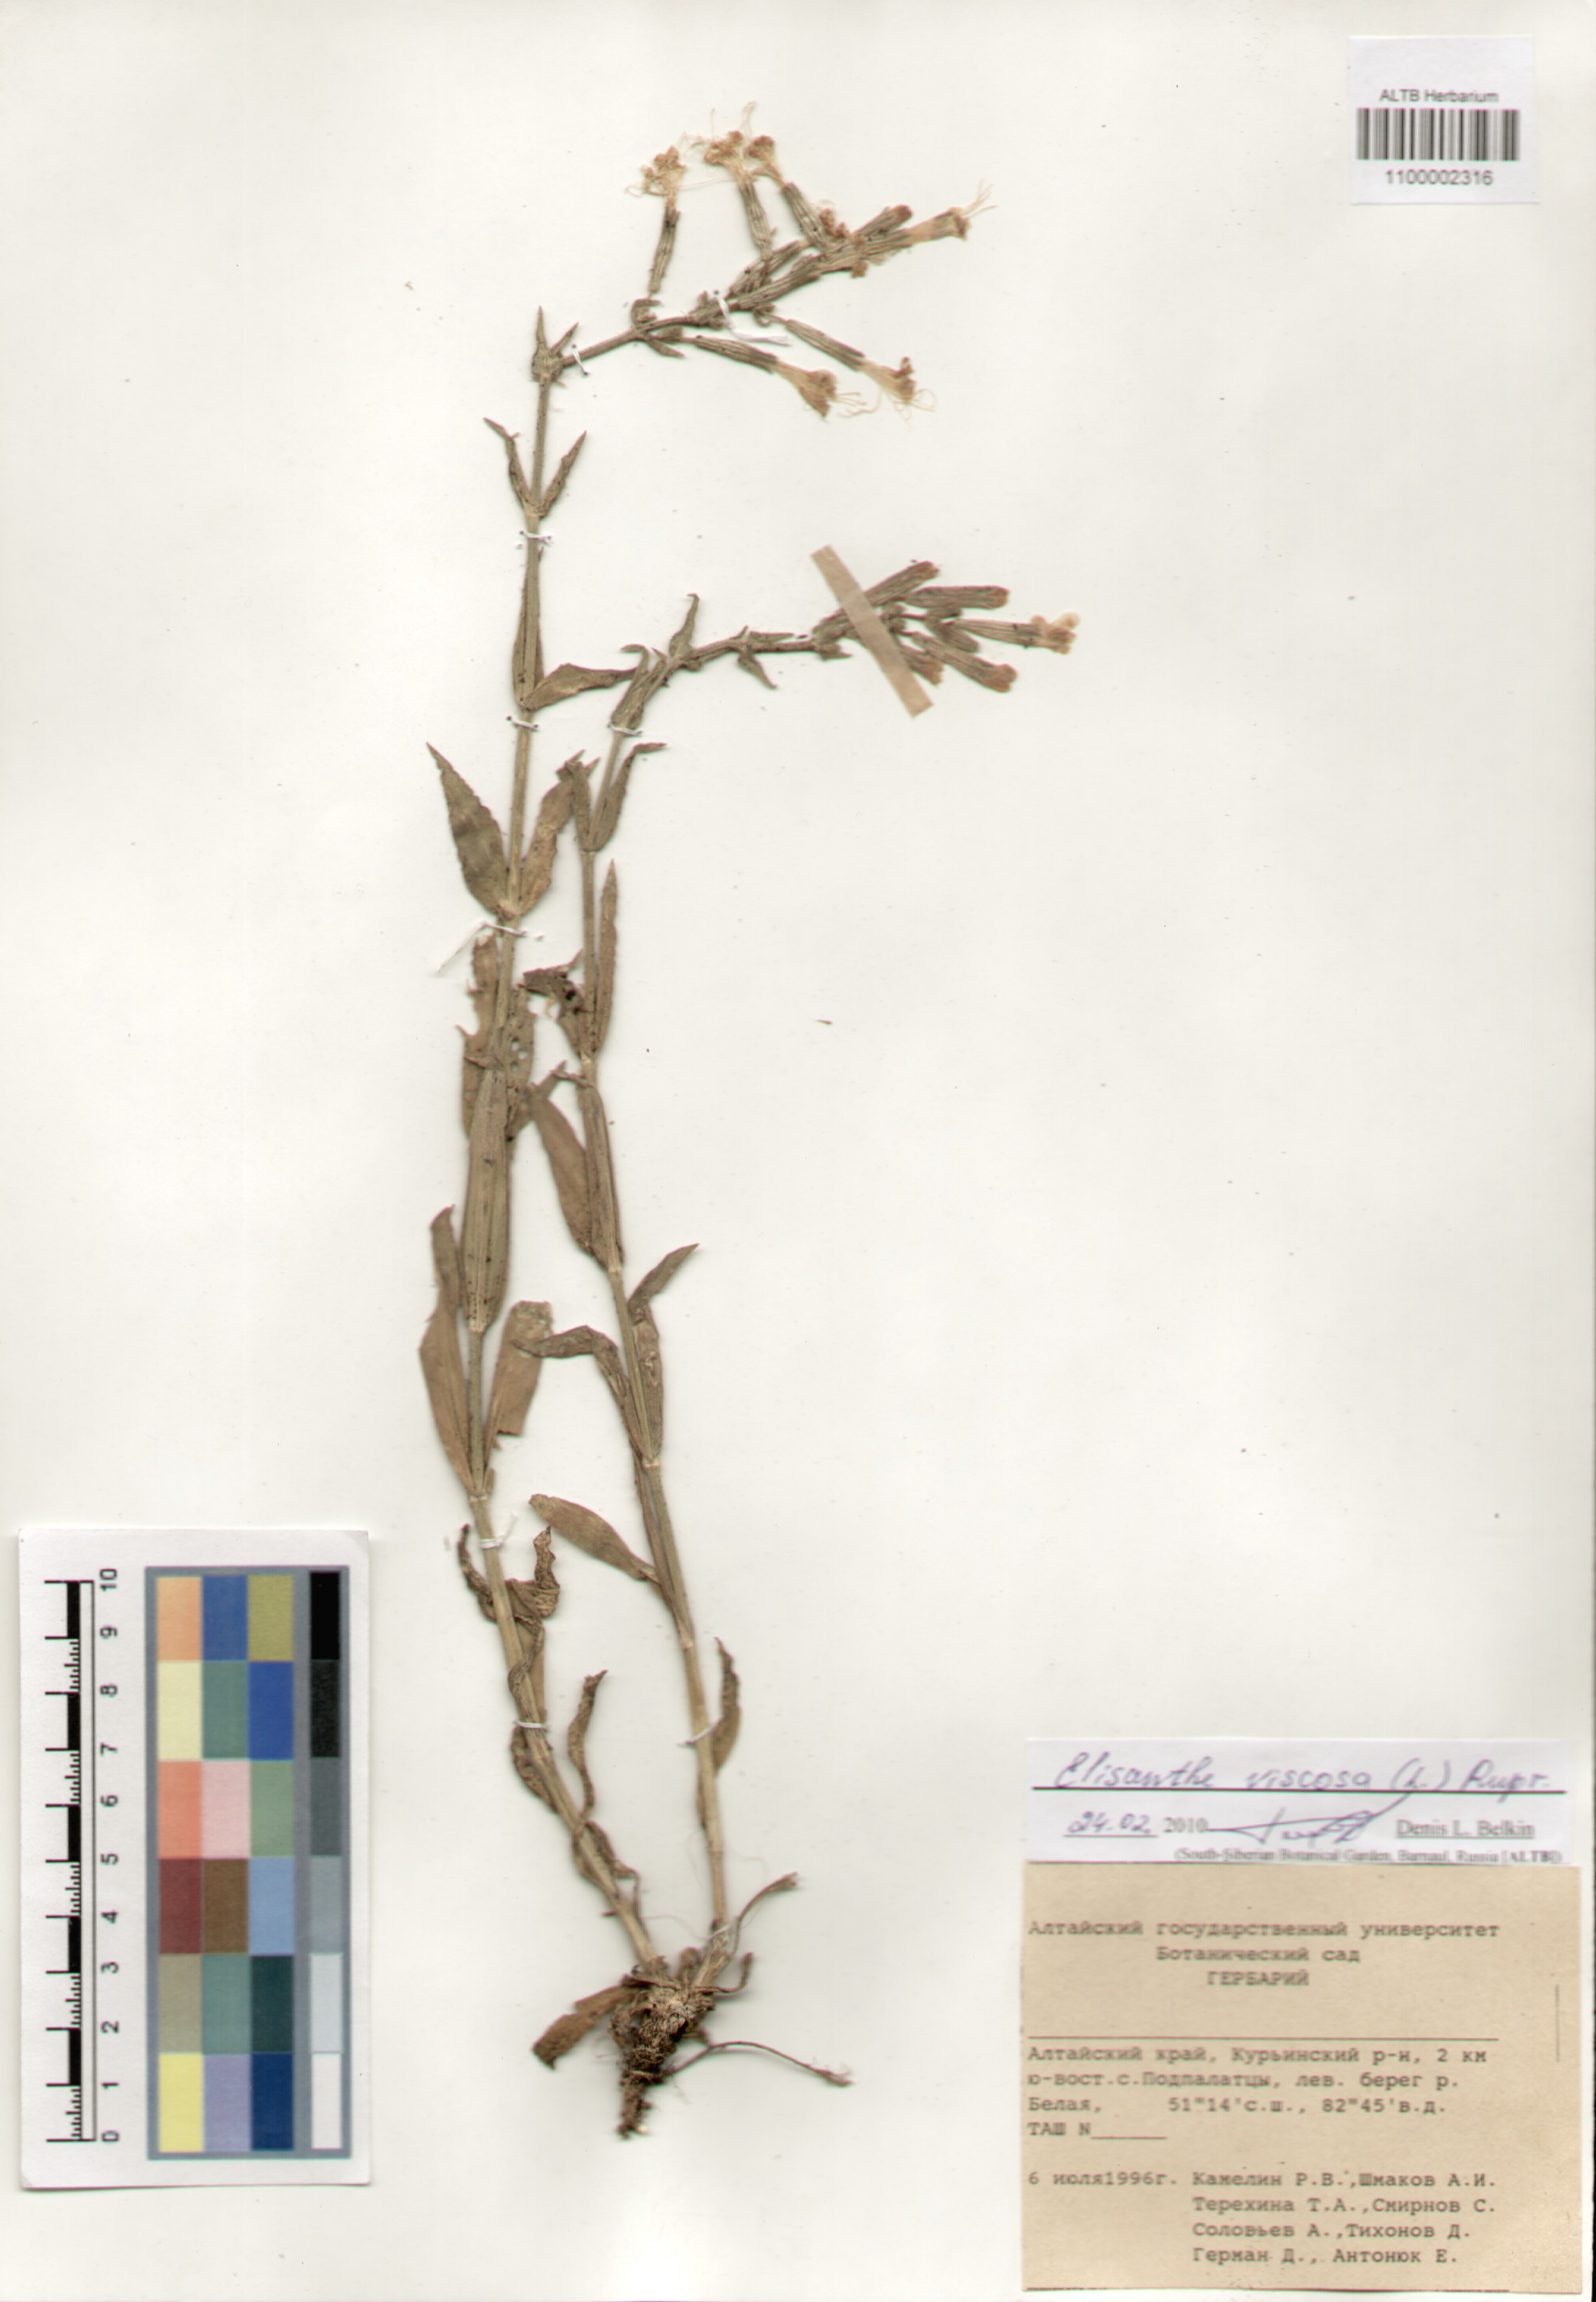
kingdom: Plantae
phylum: Tracheophyta
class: Magnoliopsida
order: Caryophyllales
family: Caryophyllaceae
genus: Silene
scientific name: Silene viscosa
